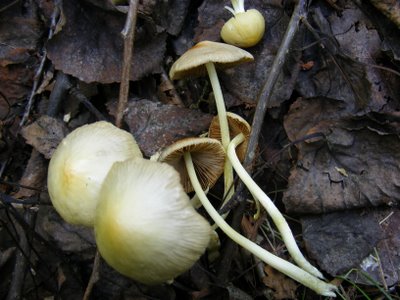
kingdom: Fungi
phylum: Basidiomycota
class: Agaricomycetes
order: Agaricales
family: Bolbitiaceae
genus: Bolbitius
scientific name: Bolbitius titubans
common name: almindelig gulhat
